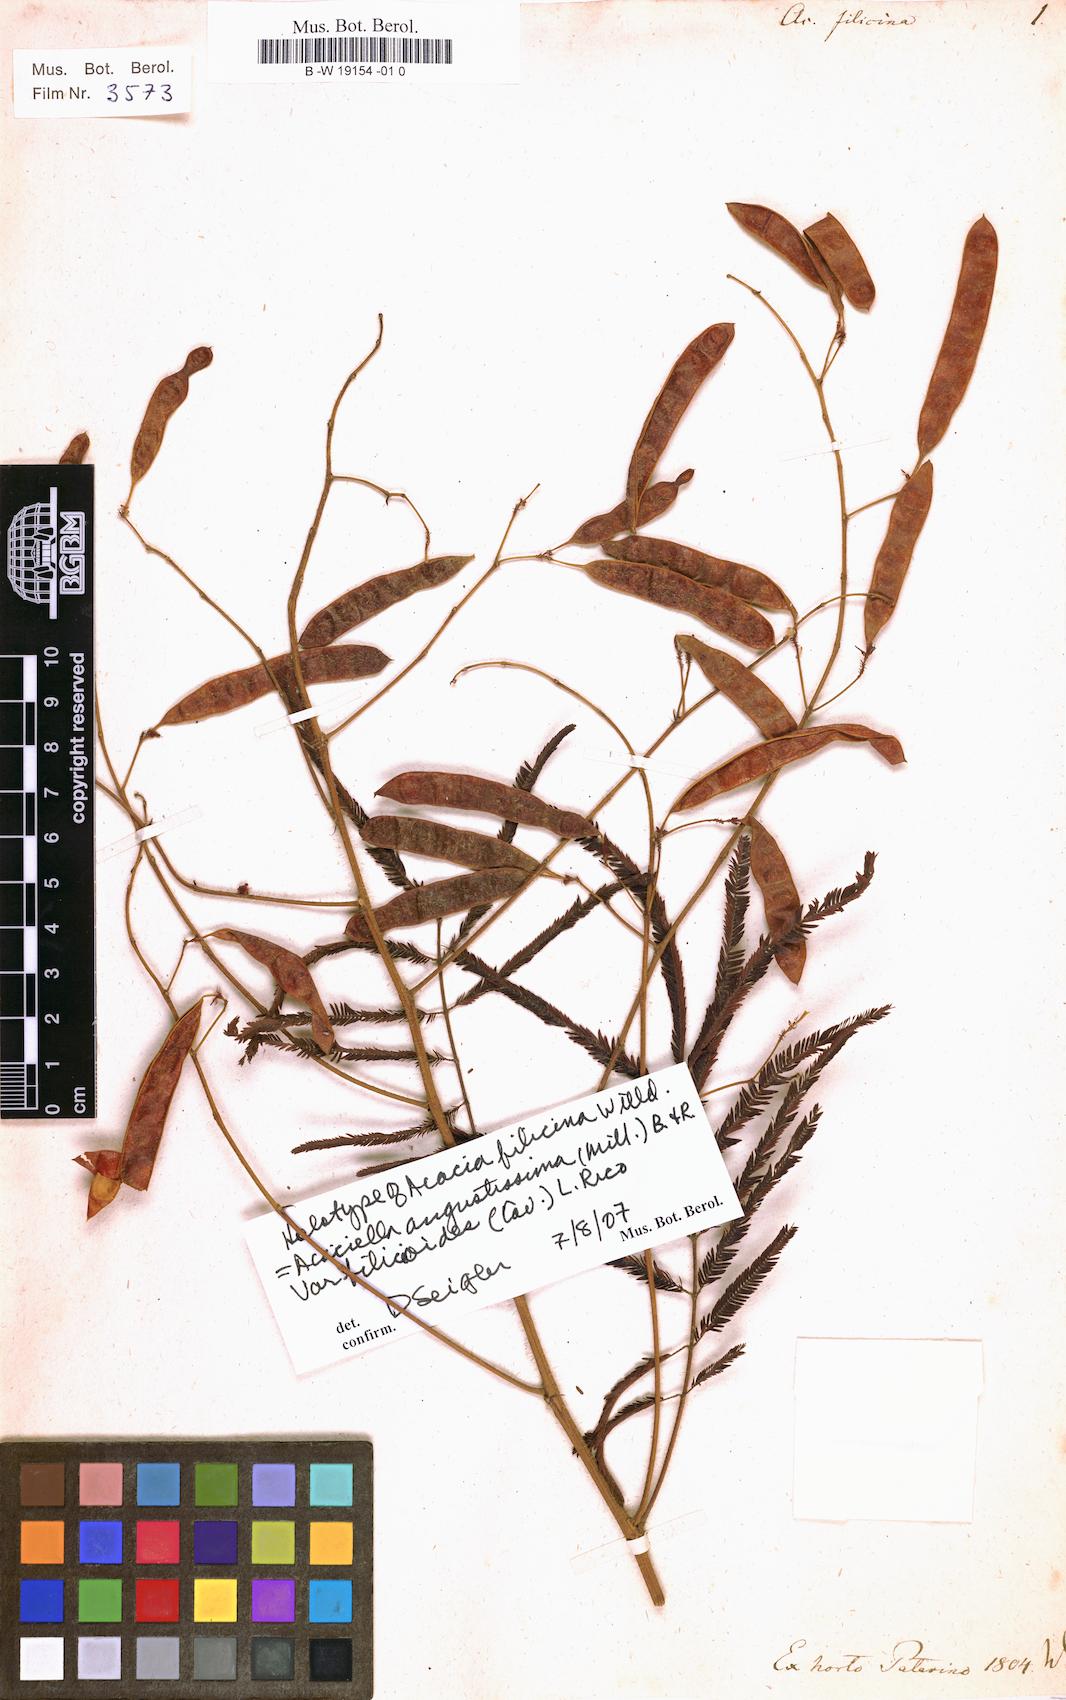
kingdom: Plantae
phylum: Tracheophyta
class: Magnoliopsida
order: Fabales
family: Fabaceae
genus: Acaciella
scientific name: Acaciella angustissima
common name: Prairie acacia
